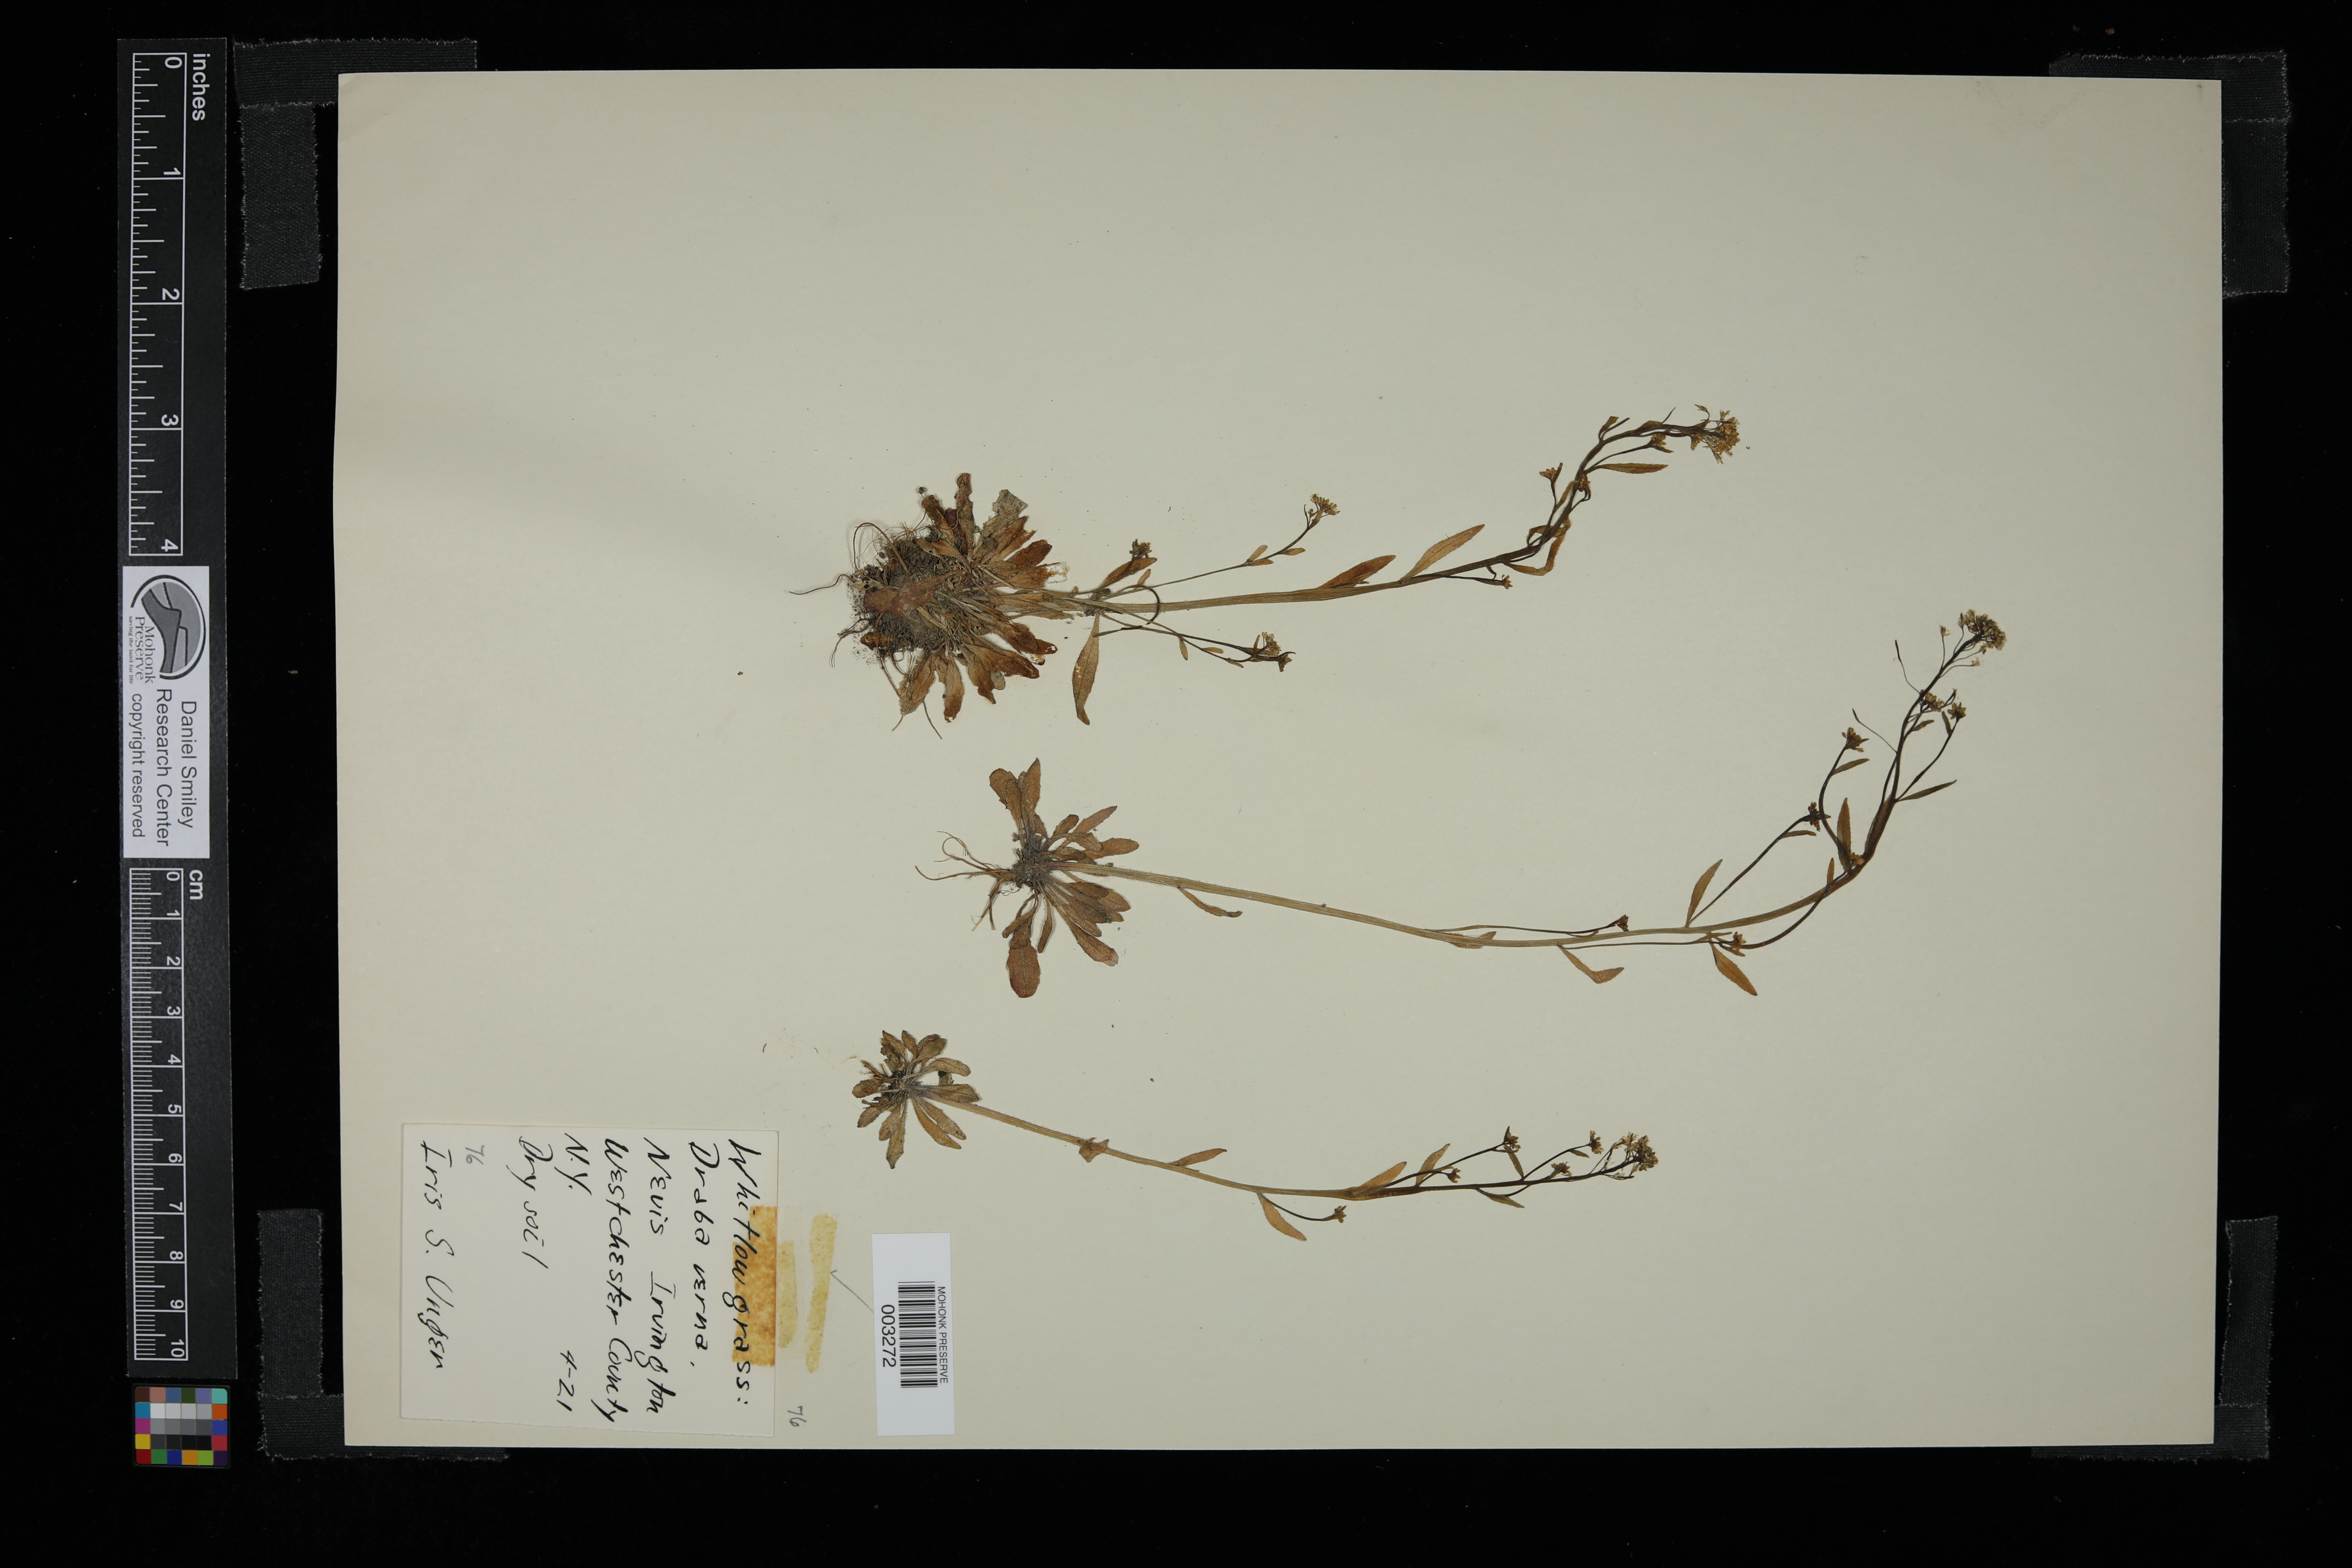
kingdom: Plantae
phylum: Tracheophyta
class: Magnoliopsida
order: Brassicales
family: Brassicaceae
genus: Draba
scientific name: Draba verna
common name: Spring draba
